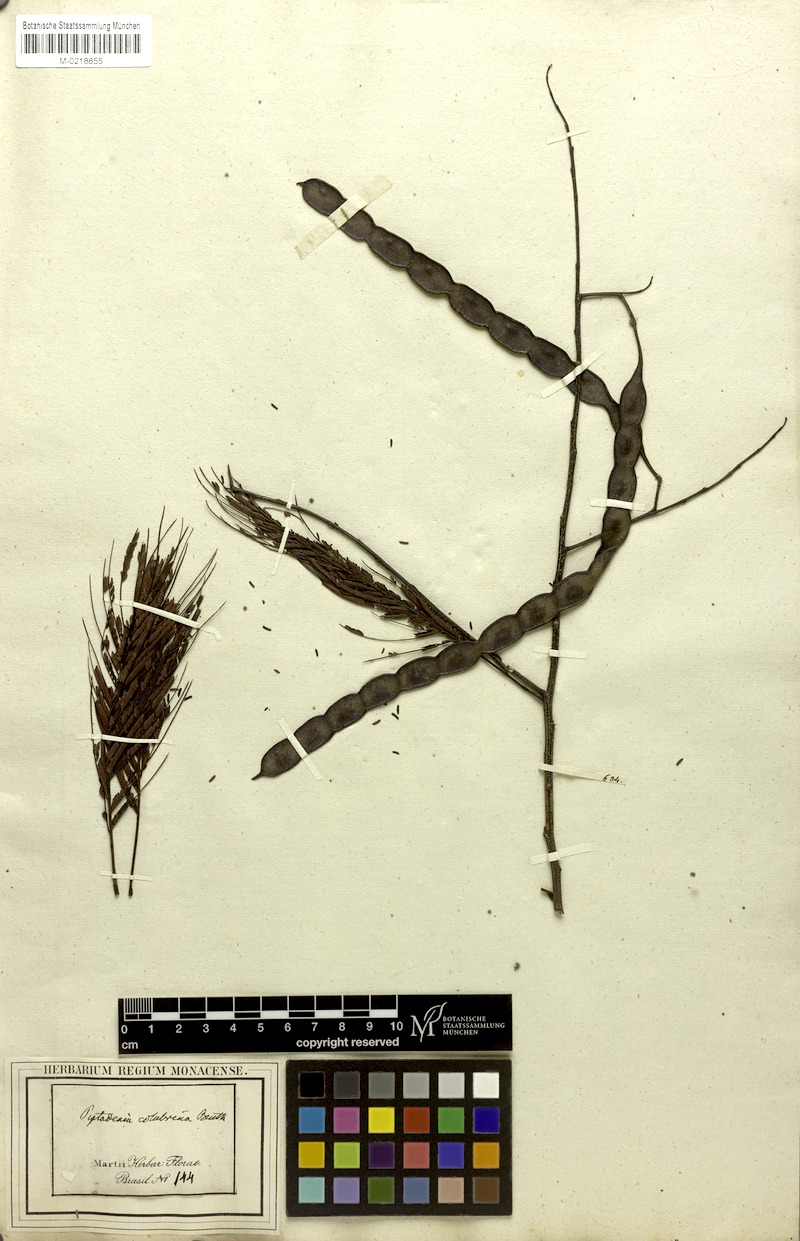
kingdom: Plantae
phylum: Tracheophyta
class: Magnoliopsida
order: Fabales
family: Fabaceae
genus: Anadenanthera
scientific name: Anadenanthera colubrina
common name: Curupay
